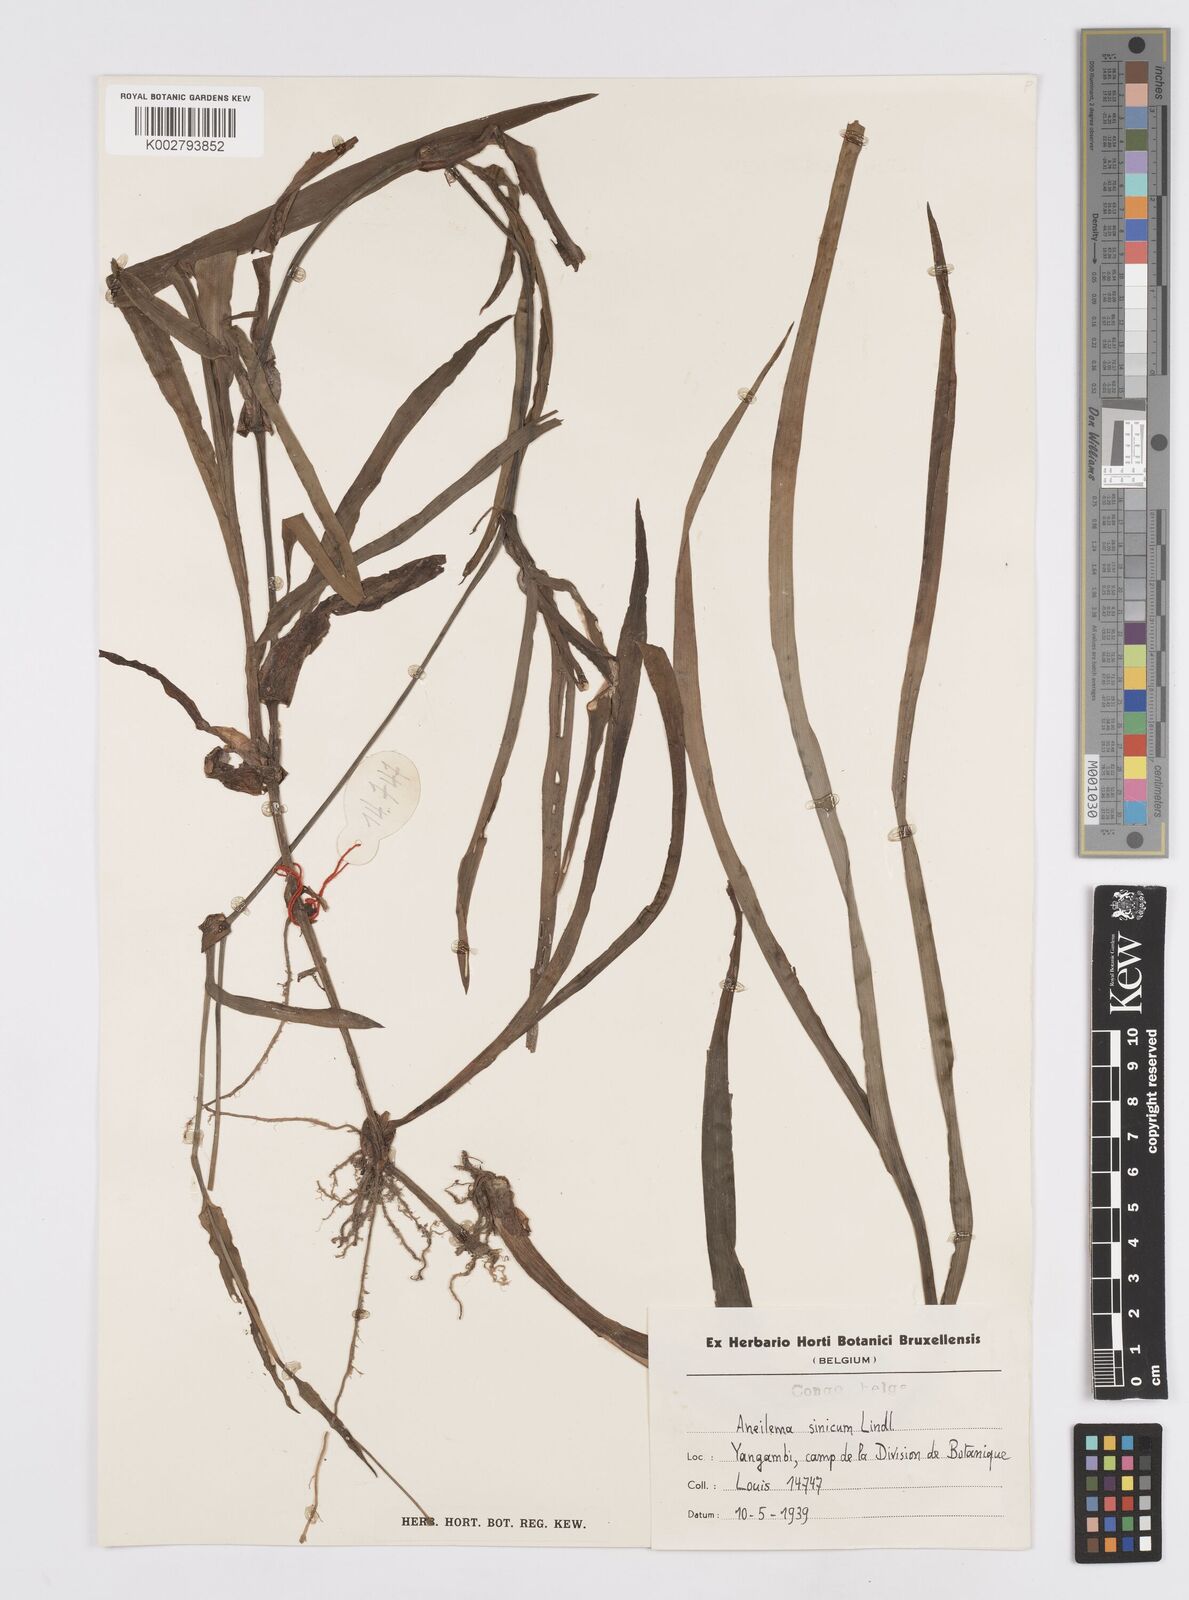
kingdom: Plantae
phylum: Tracheophyta
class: Liliopsida
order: Commelinales
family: Commelinaceae
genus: Murdannia
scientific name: Murdannia simplex
